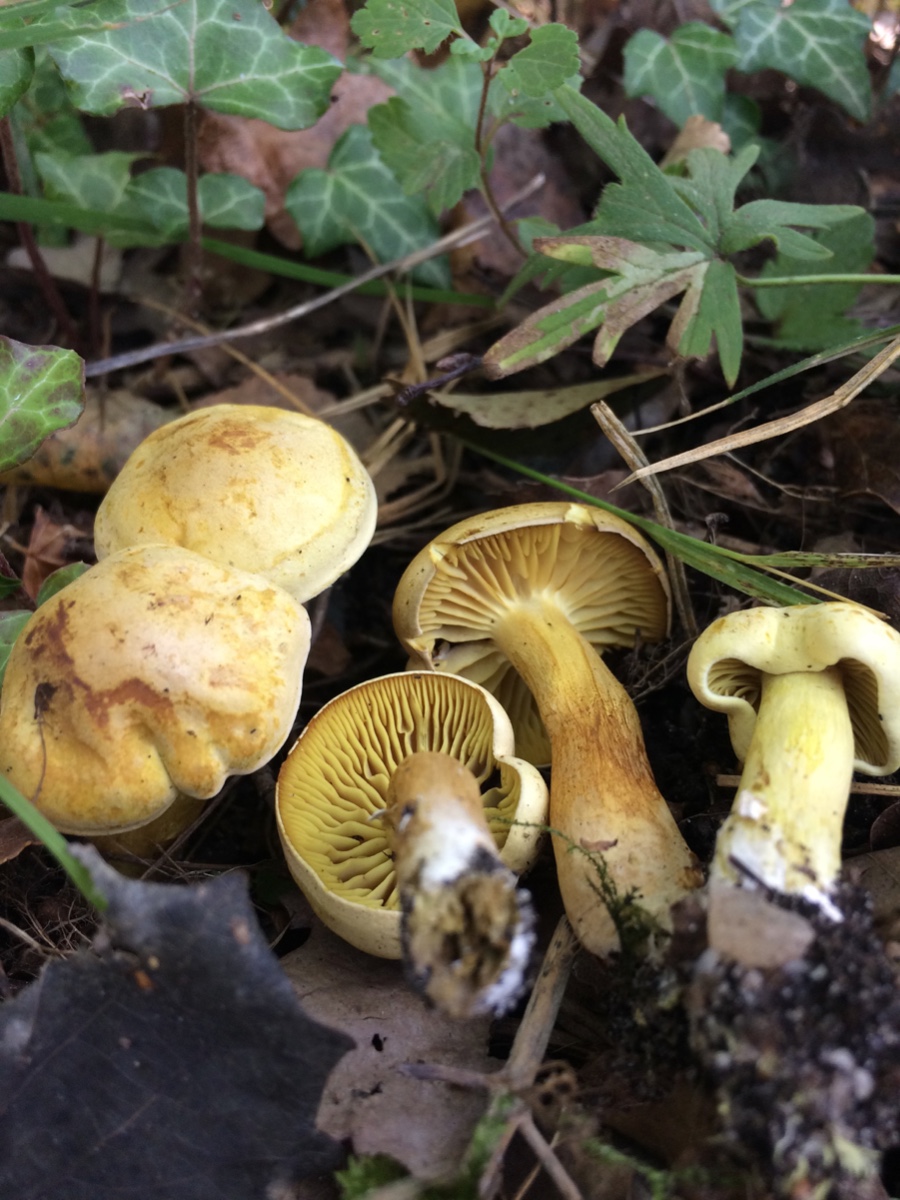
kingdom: Fungi
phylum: Basidiomycota
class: Agaricomycetes
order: Agaricales
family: Tricholomataceae
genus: Tricholoma
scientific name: Tricholoma sulphureum
